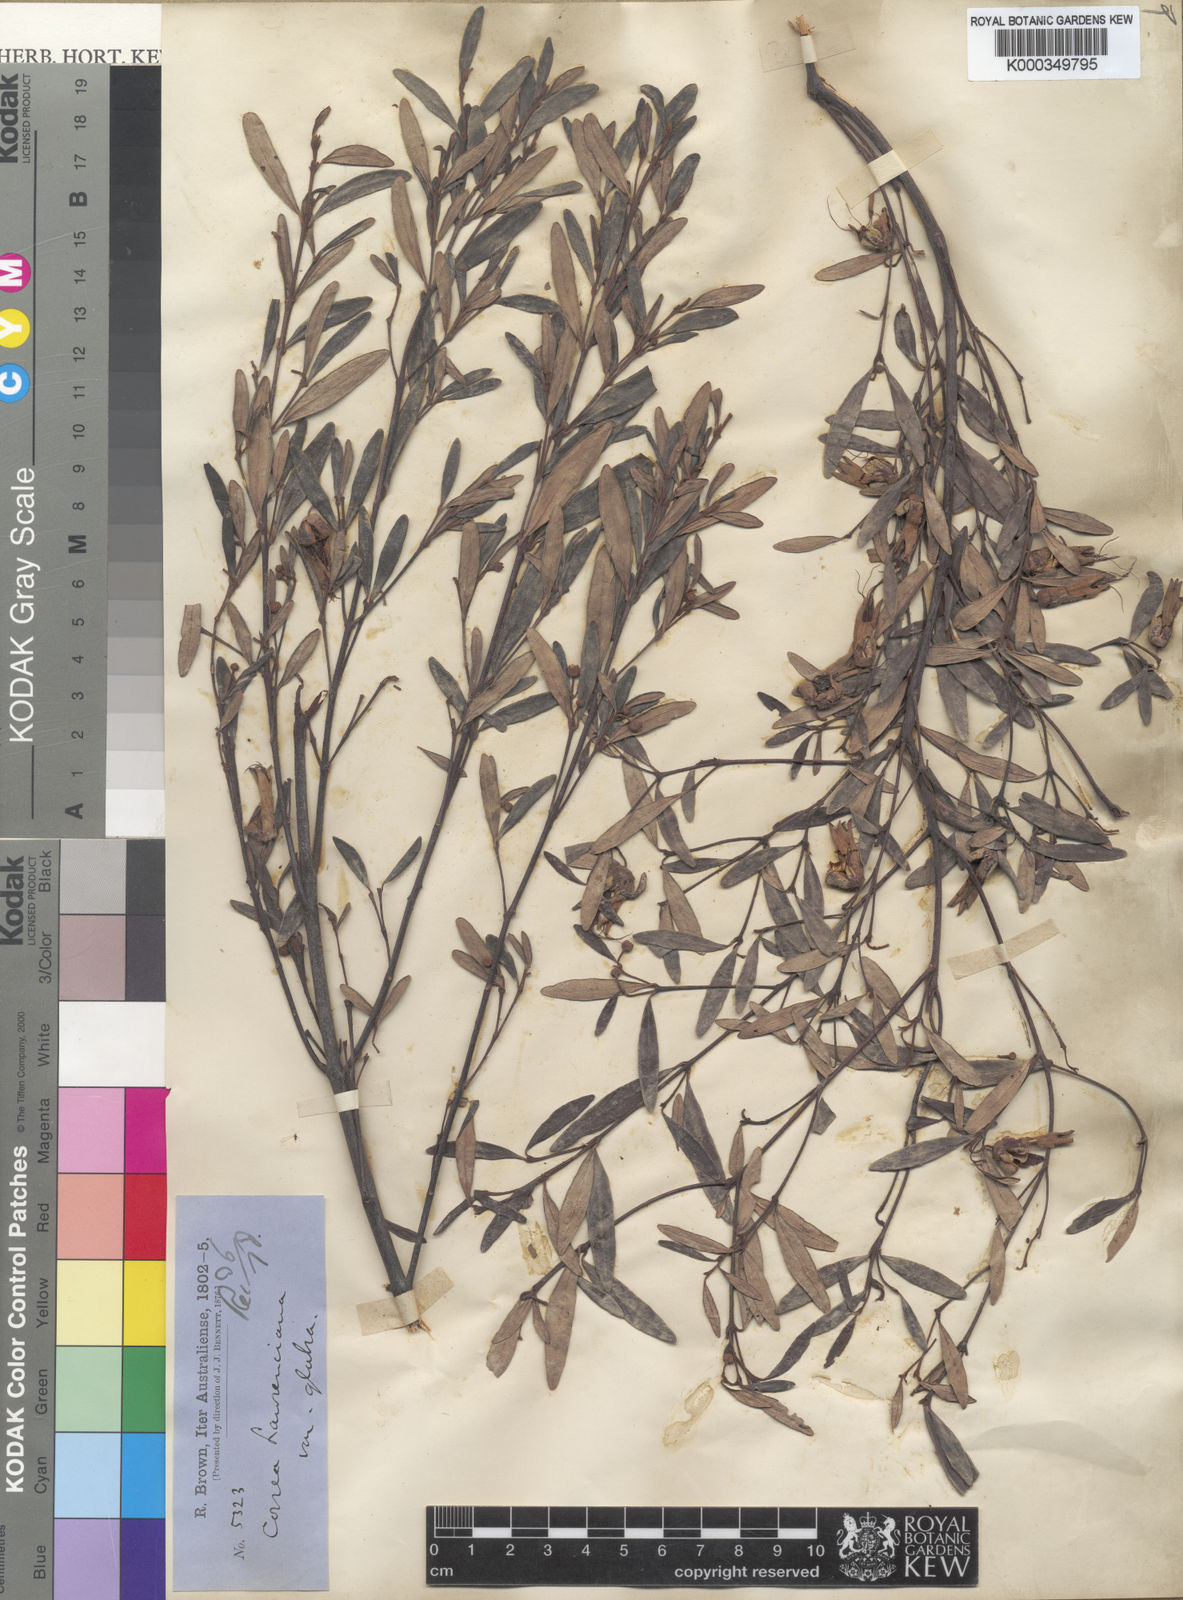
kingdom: Plantae
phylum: Tracheophyta
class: Magnoliopsida
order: Sapindales
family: Rutaceae
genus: Correa
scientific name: Correa
